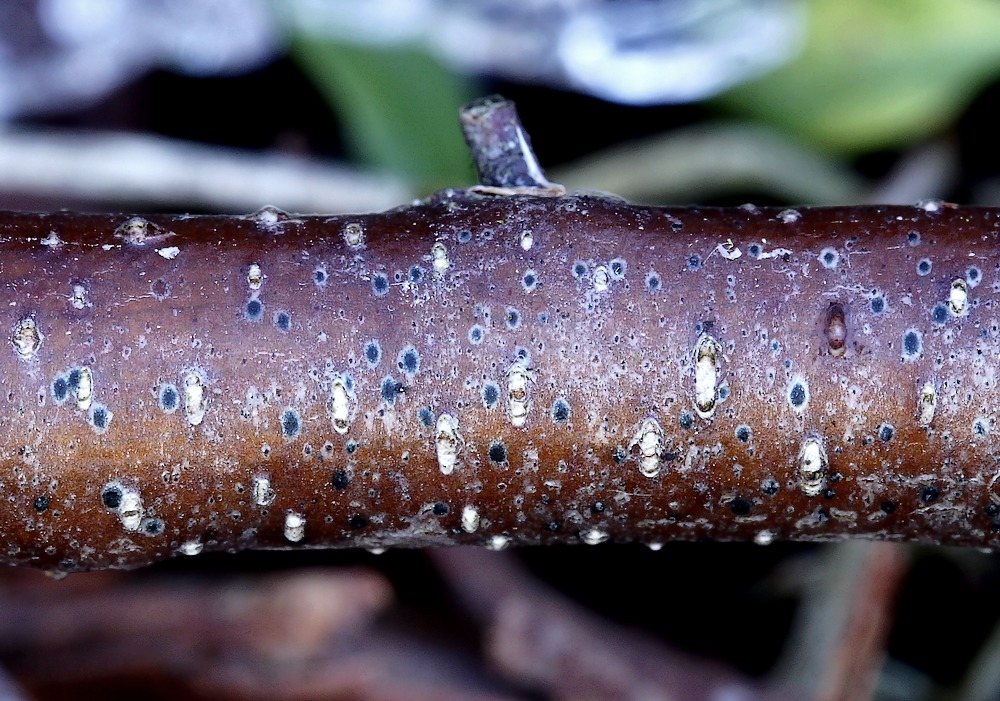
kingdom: Fungi
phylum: Ascomycota
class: Dothideomycetes
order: Dothideales
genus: Mycoglaena
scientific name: Mycoglaena myricae
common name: liden porsprik
